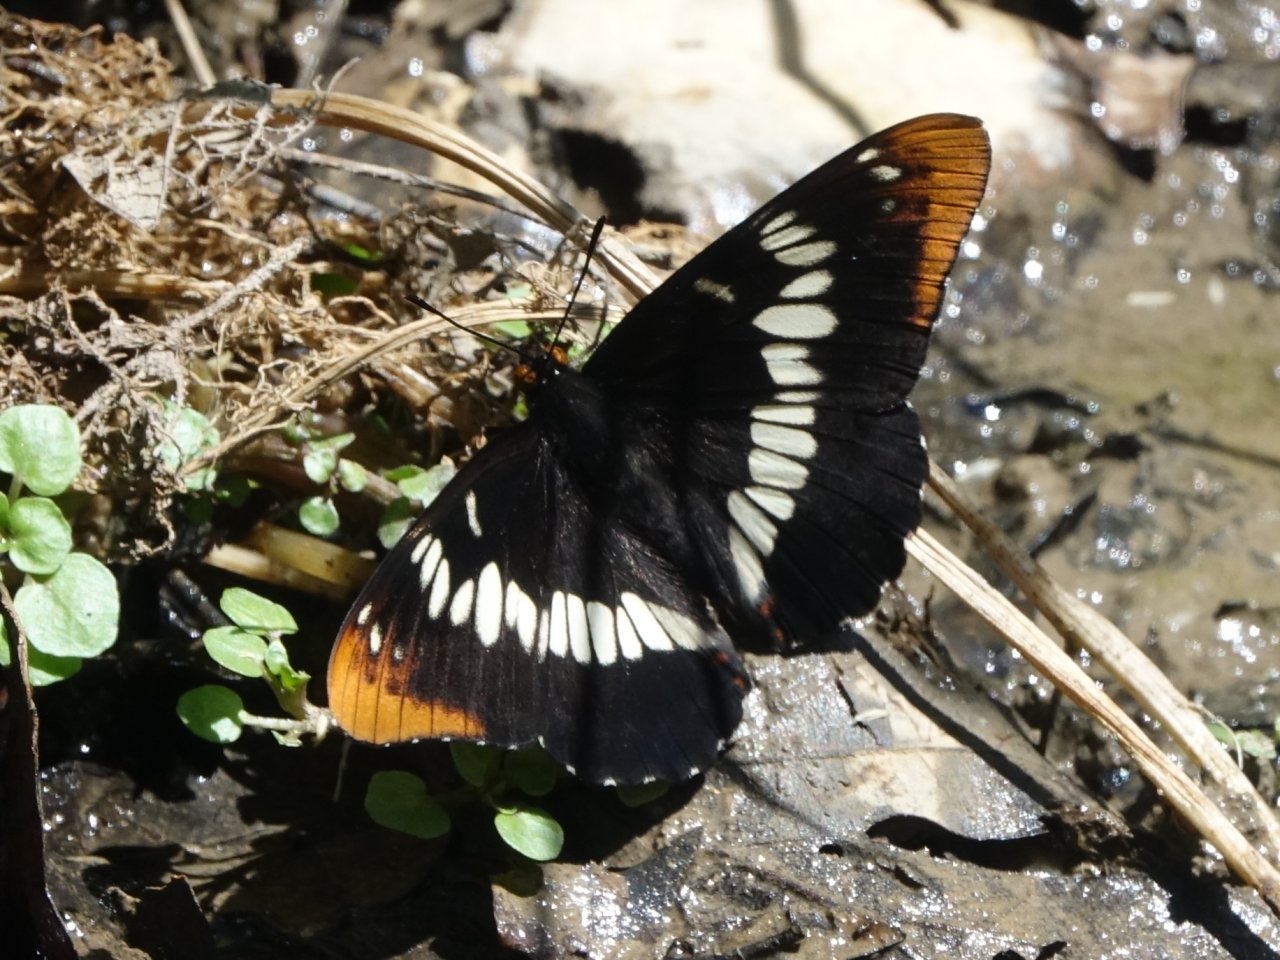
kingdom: Animalia
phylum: Arthropoda
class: Insecta
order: Lepidoptera
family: Nymphalidae
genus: Limenitis
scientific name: Limenitis lorquini
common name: Lorquin's Admiral
